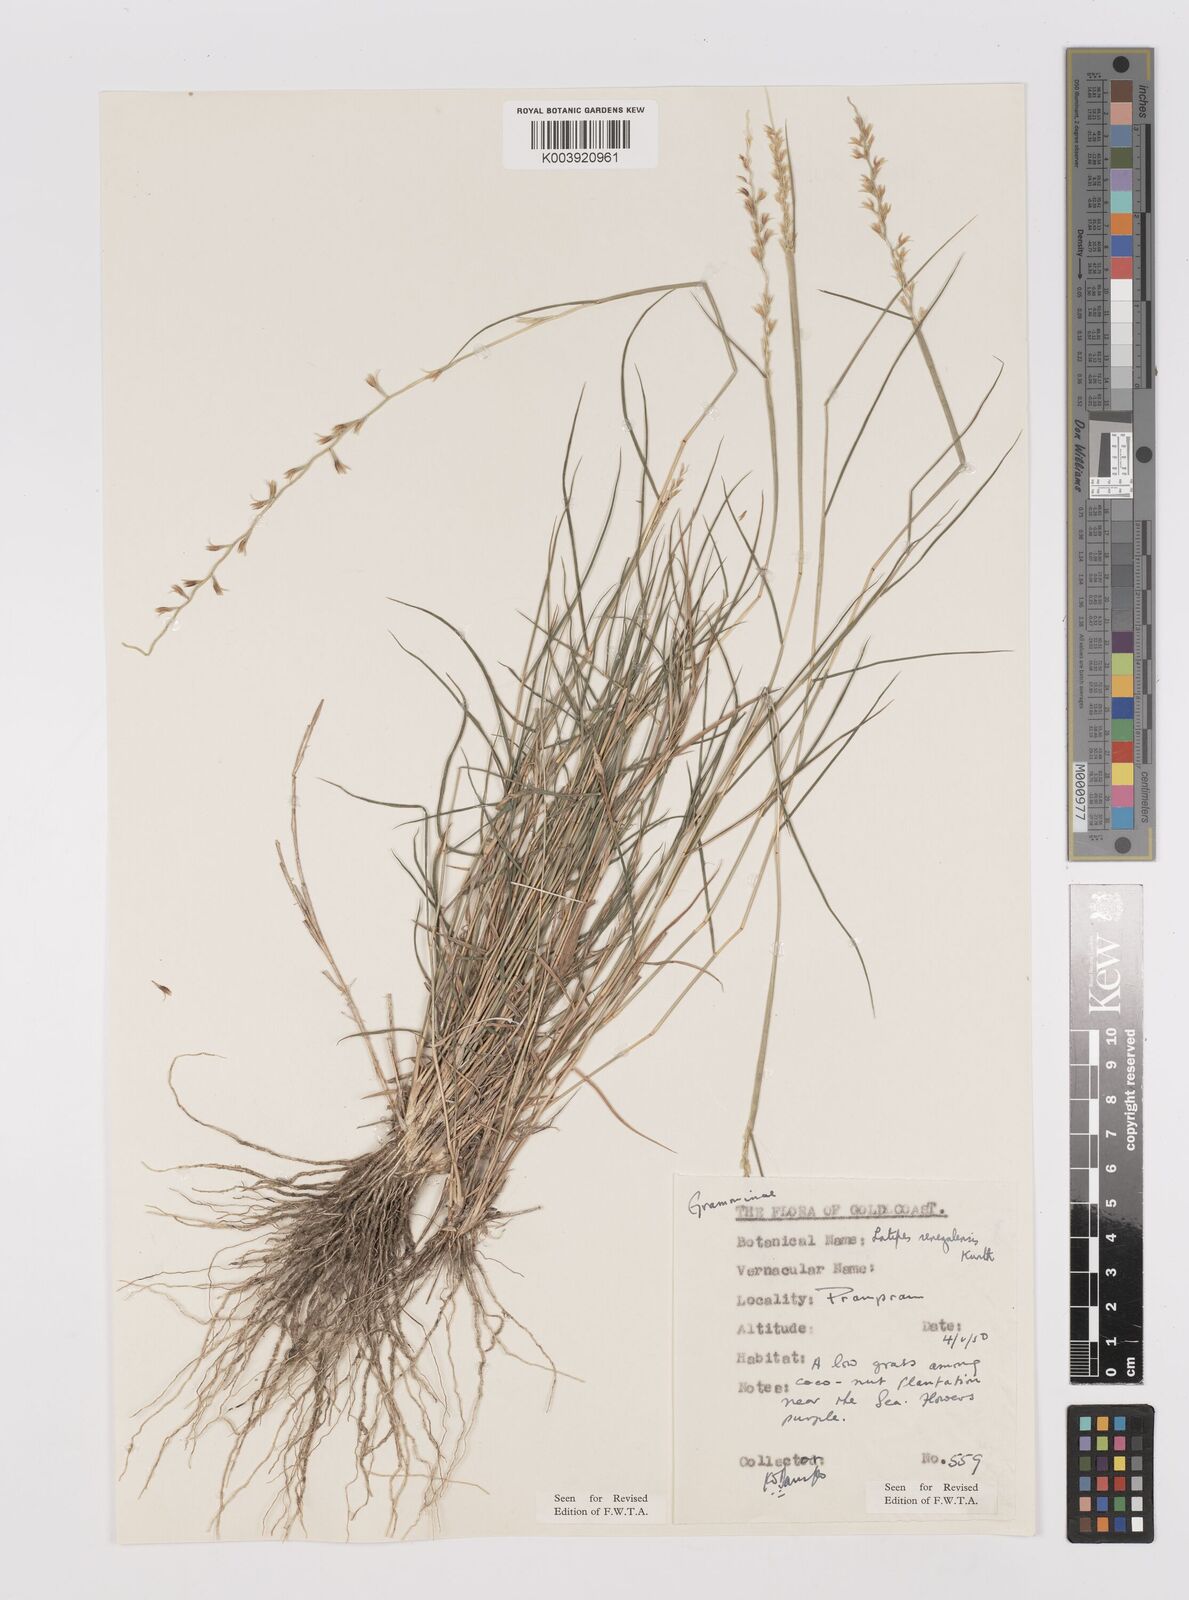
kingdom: Plantae
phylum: Tracheophyta
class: Liliopsida
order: Poales
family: Poaceae
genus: Leptothrium
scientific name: Leptothrium senegalense
